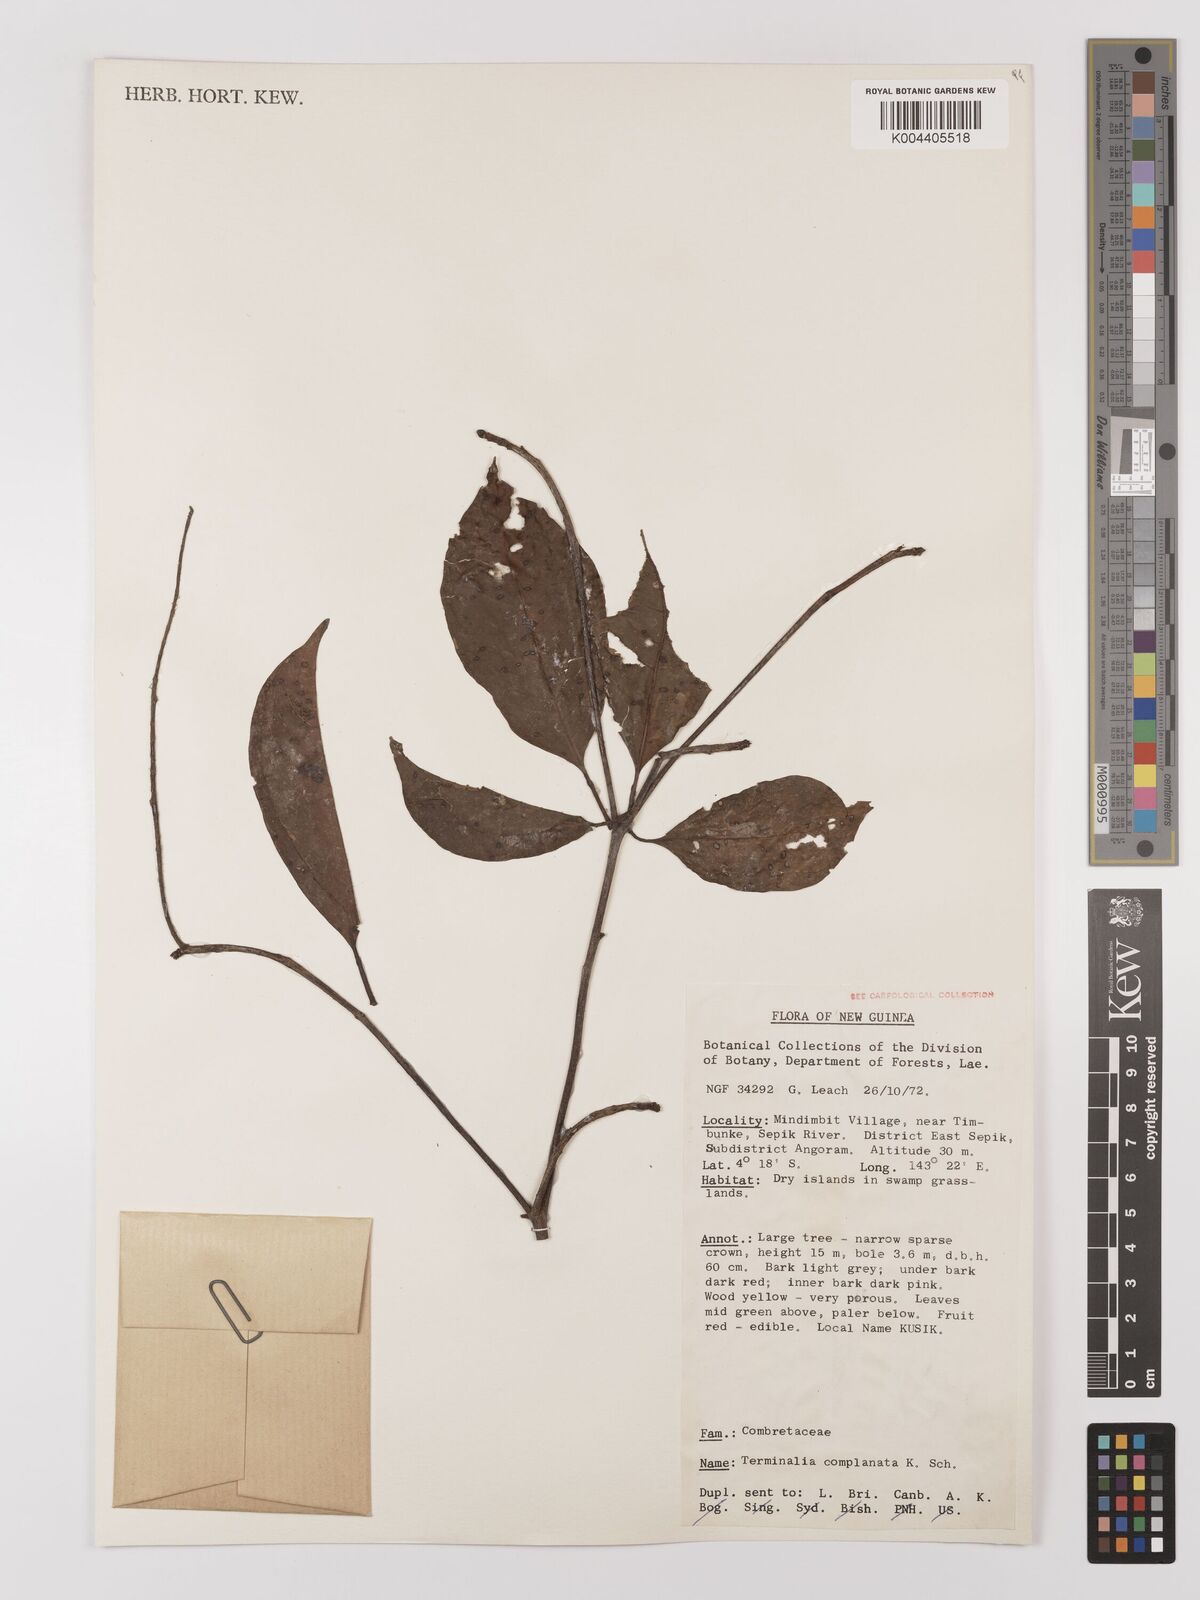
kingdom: Plantae
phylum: Tracheophyta
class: Magnoliopsida
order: Myrtales
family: Combretaceae
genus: Terminalia
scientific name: Terminalia complanata
